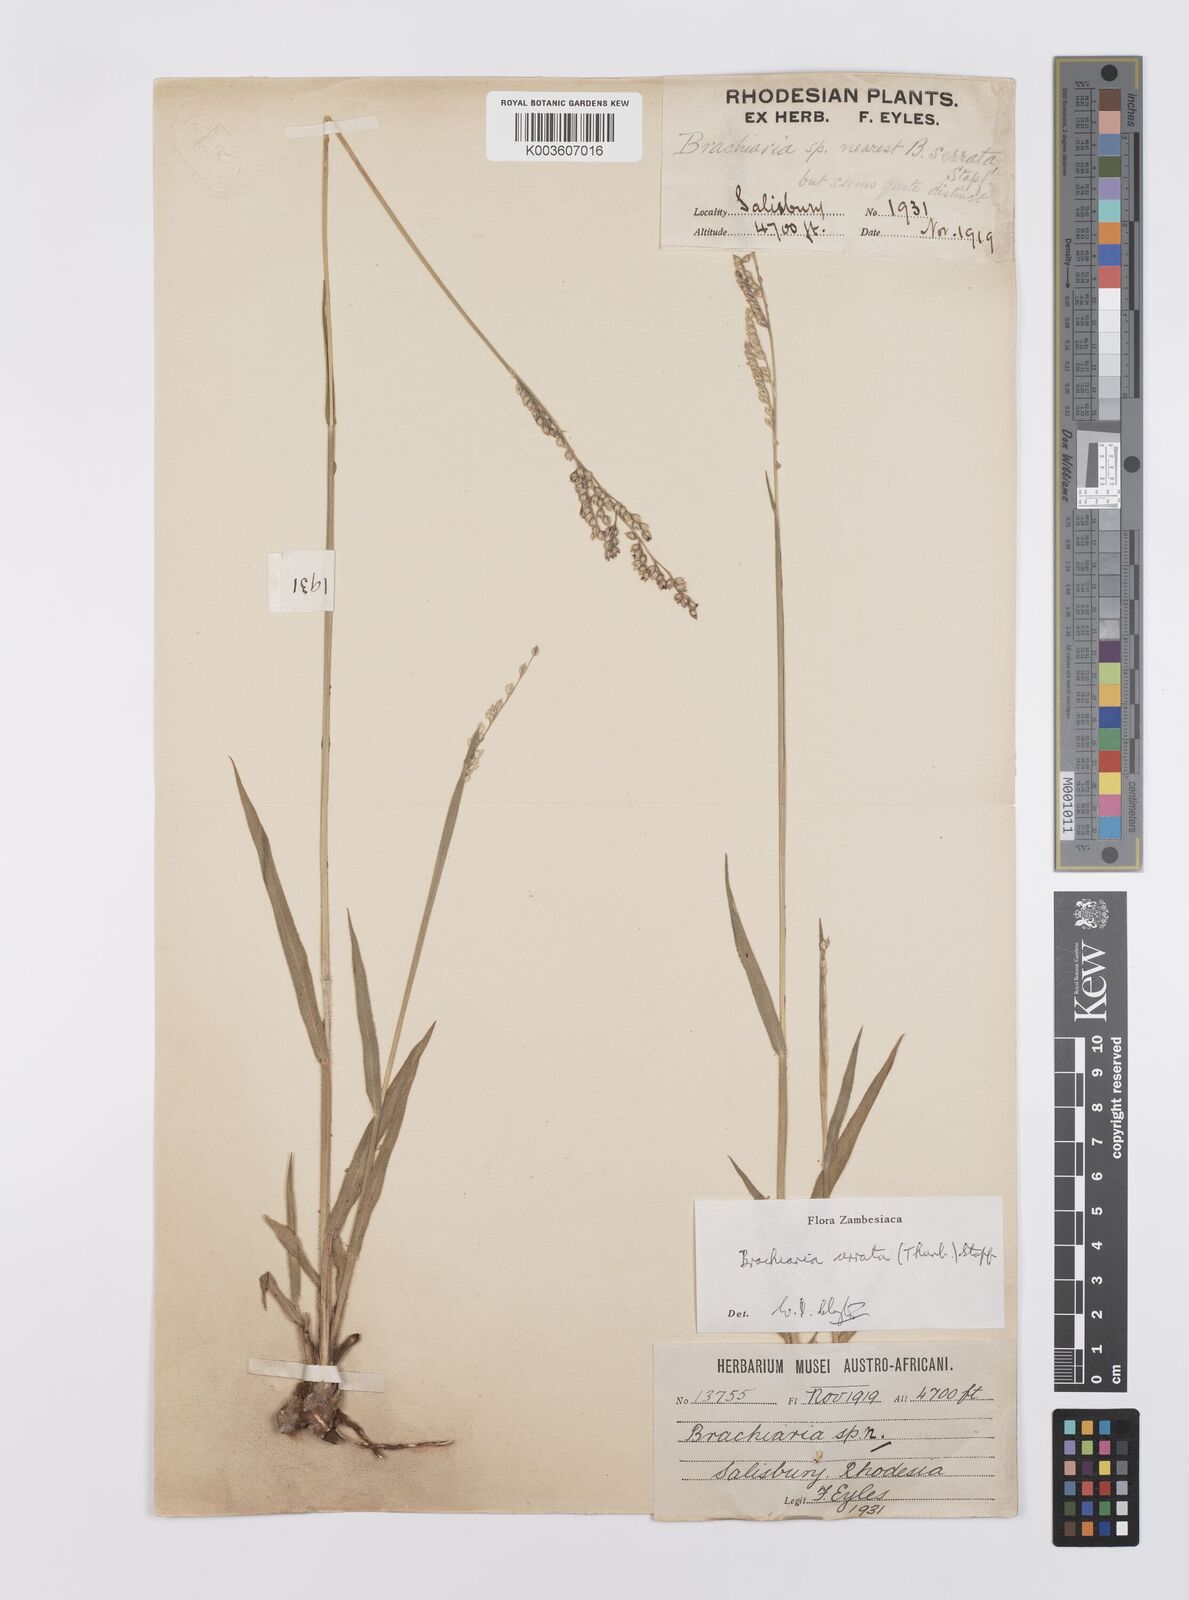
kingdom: Plantae
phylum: Tracheophyta
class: Liliopsida
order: Poales
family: Poaceae
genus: Urochloa
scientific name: Urochloa serrata
